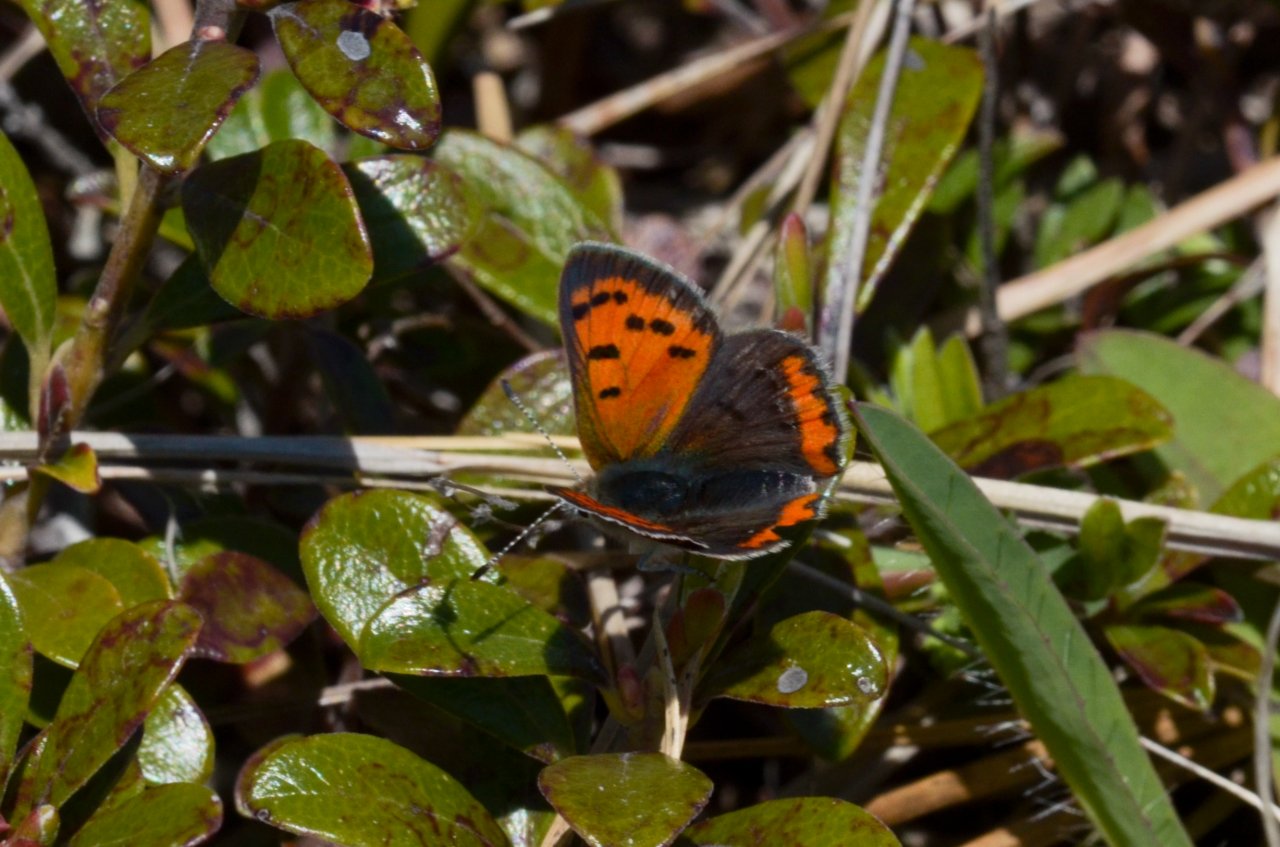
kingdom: Animalia
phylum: Arthropoda
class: Insecta
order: Lepidoptera
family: Lycaenidae
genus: Lycaena
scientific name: Lycaena phlaeas
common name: American Copper
